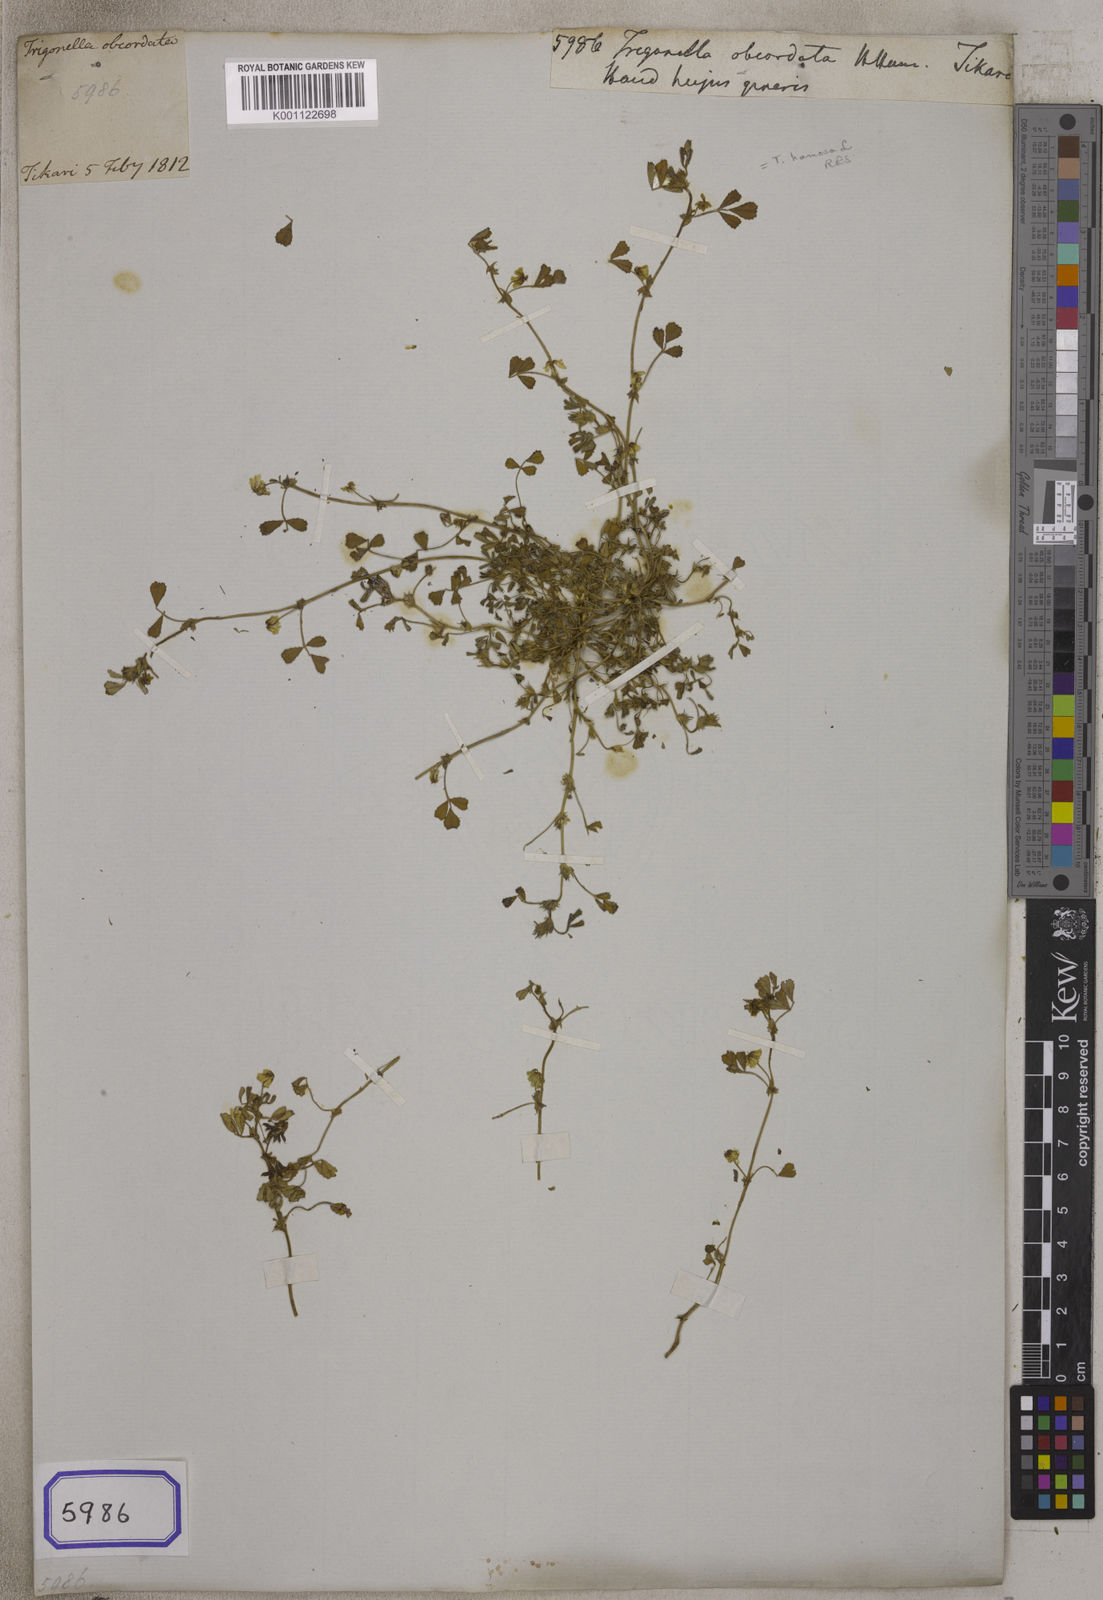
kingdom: Plantae
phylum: Tracheophyta
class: Magnoliopsida
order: Fabales
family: Fabaceae
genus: Trigonella
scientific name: Trigonella
